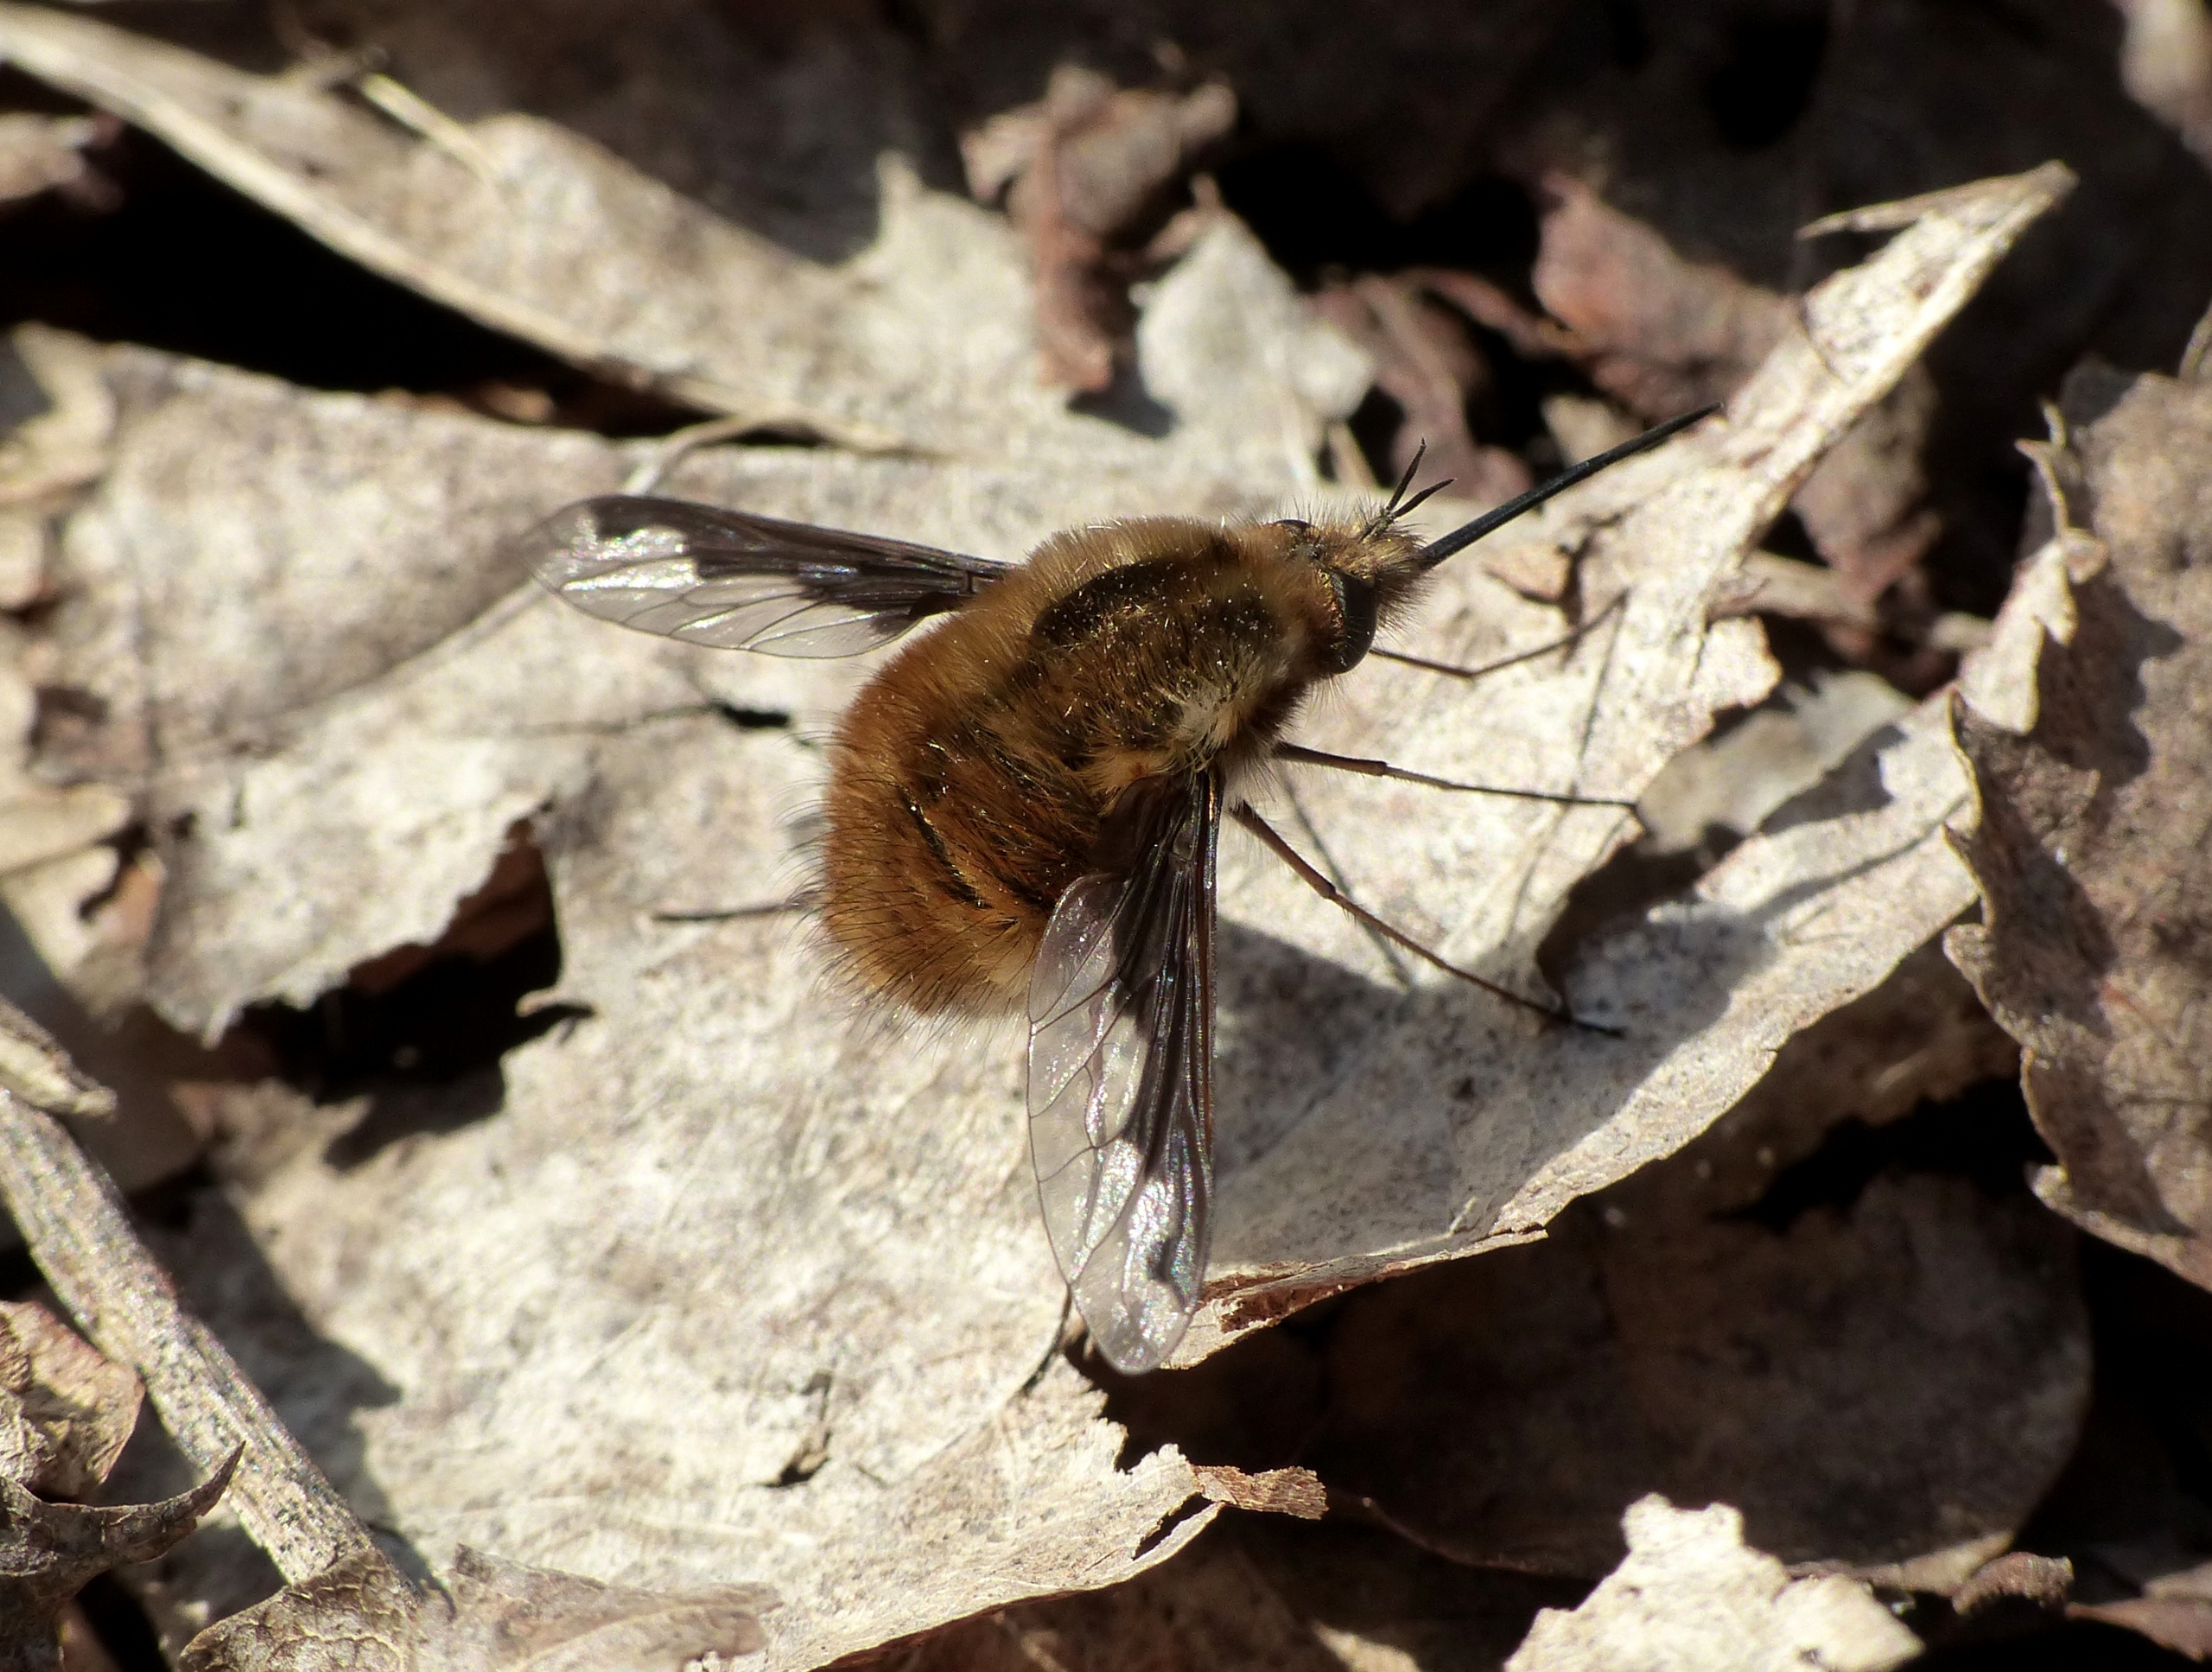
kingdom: Animalia
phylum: Arthropoda
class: Insecta
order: Diptera
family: Bombyliidae
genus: Bombylius
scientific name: Bombylius major
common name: Stor humleflue
